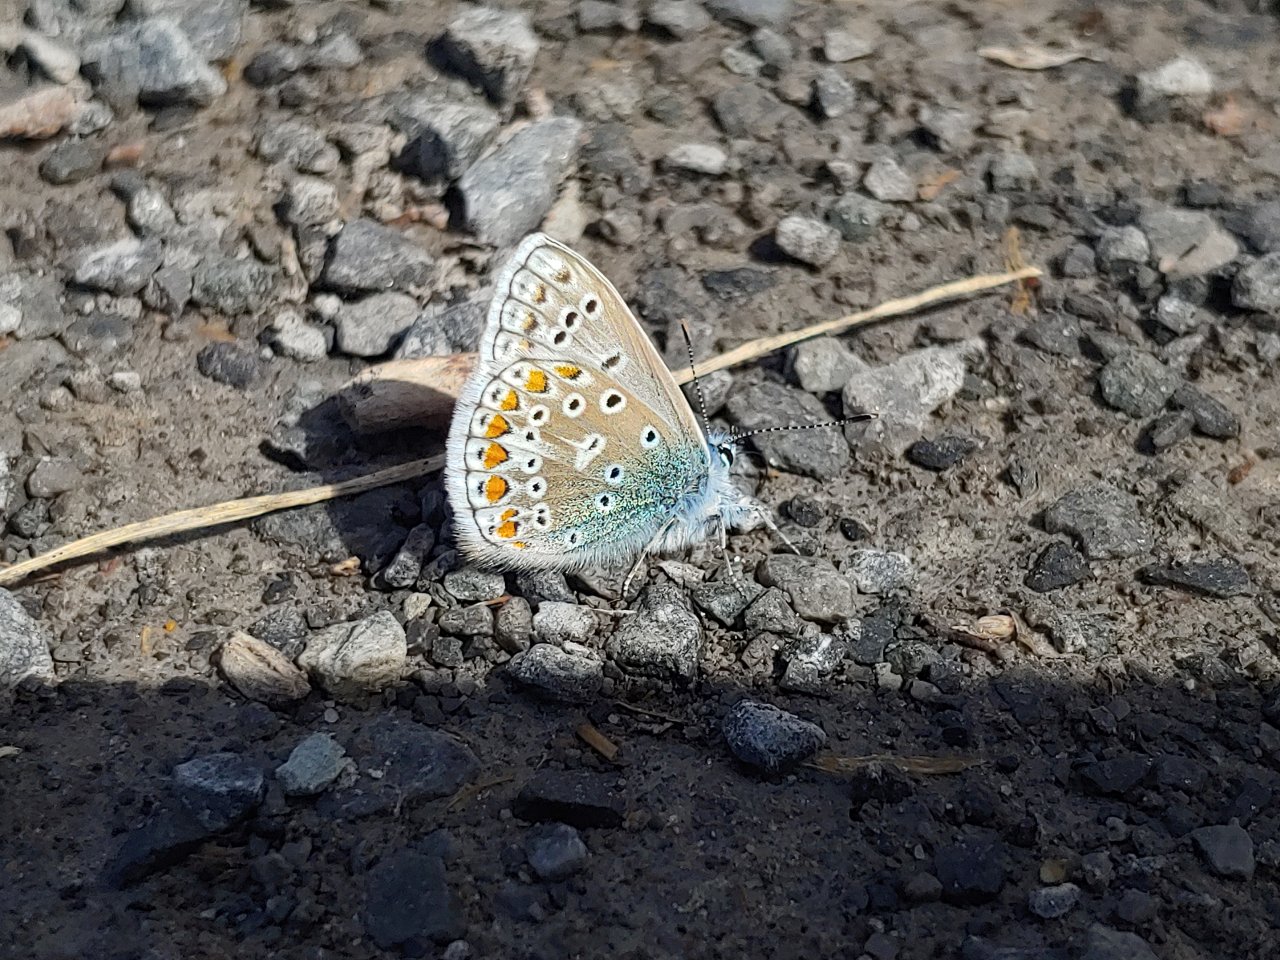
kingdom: Animalia
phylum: Arthropoda
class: Insecta
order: Lepidoptera
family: Lycaenidae
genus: Polyommatus
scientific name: Polyommatus icarus
